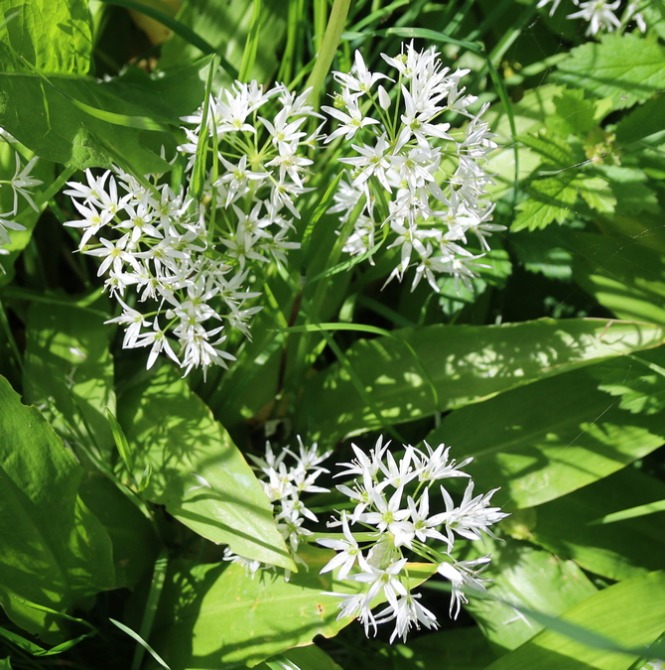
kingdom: Plantae
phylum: Tracheophyta
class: Liliopsida
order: Asparagales
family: Amaryllidaceae
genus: Allium
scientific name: Allium ursinum
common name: Rams-løg
